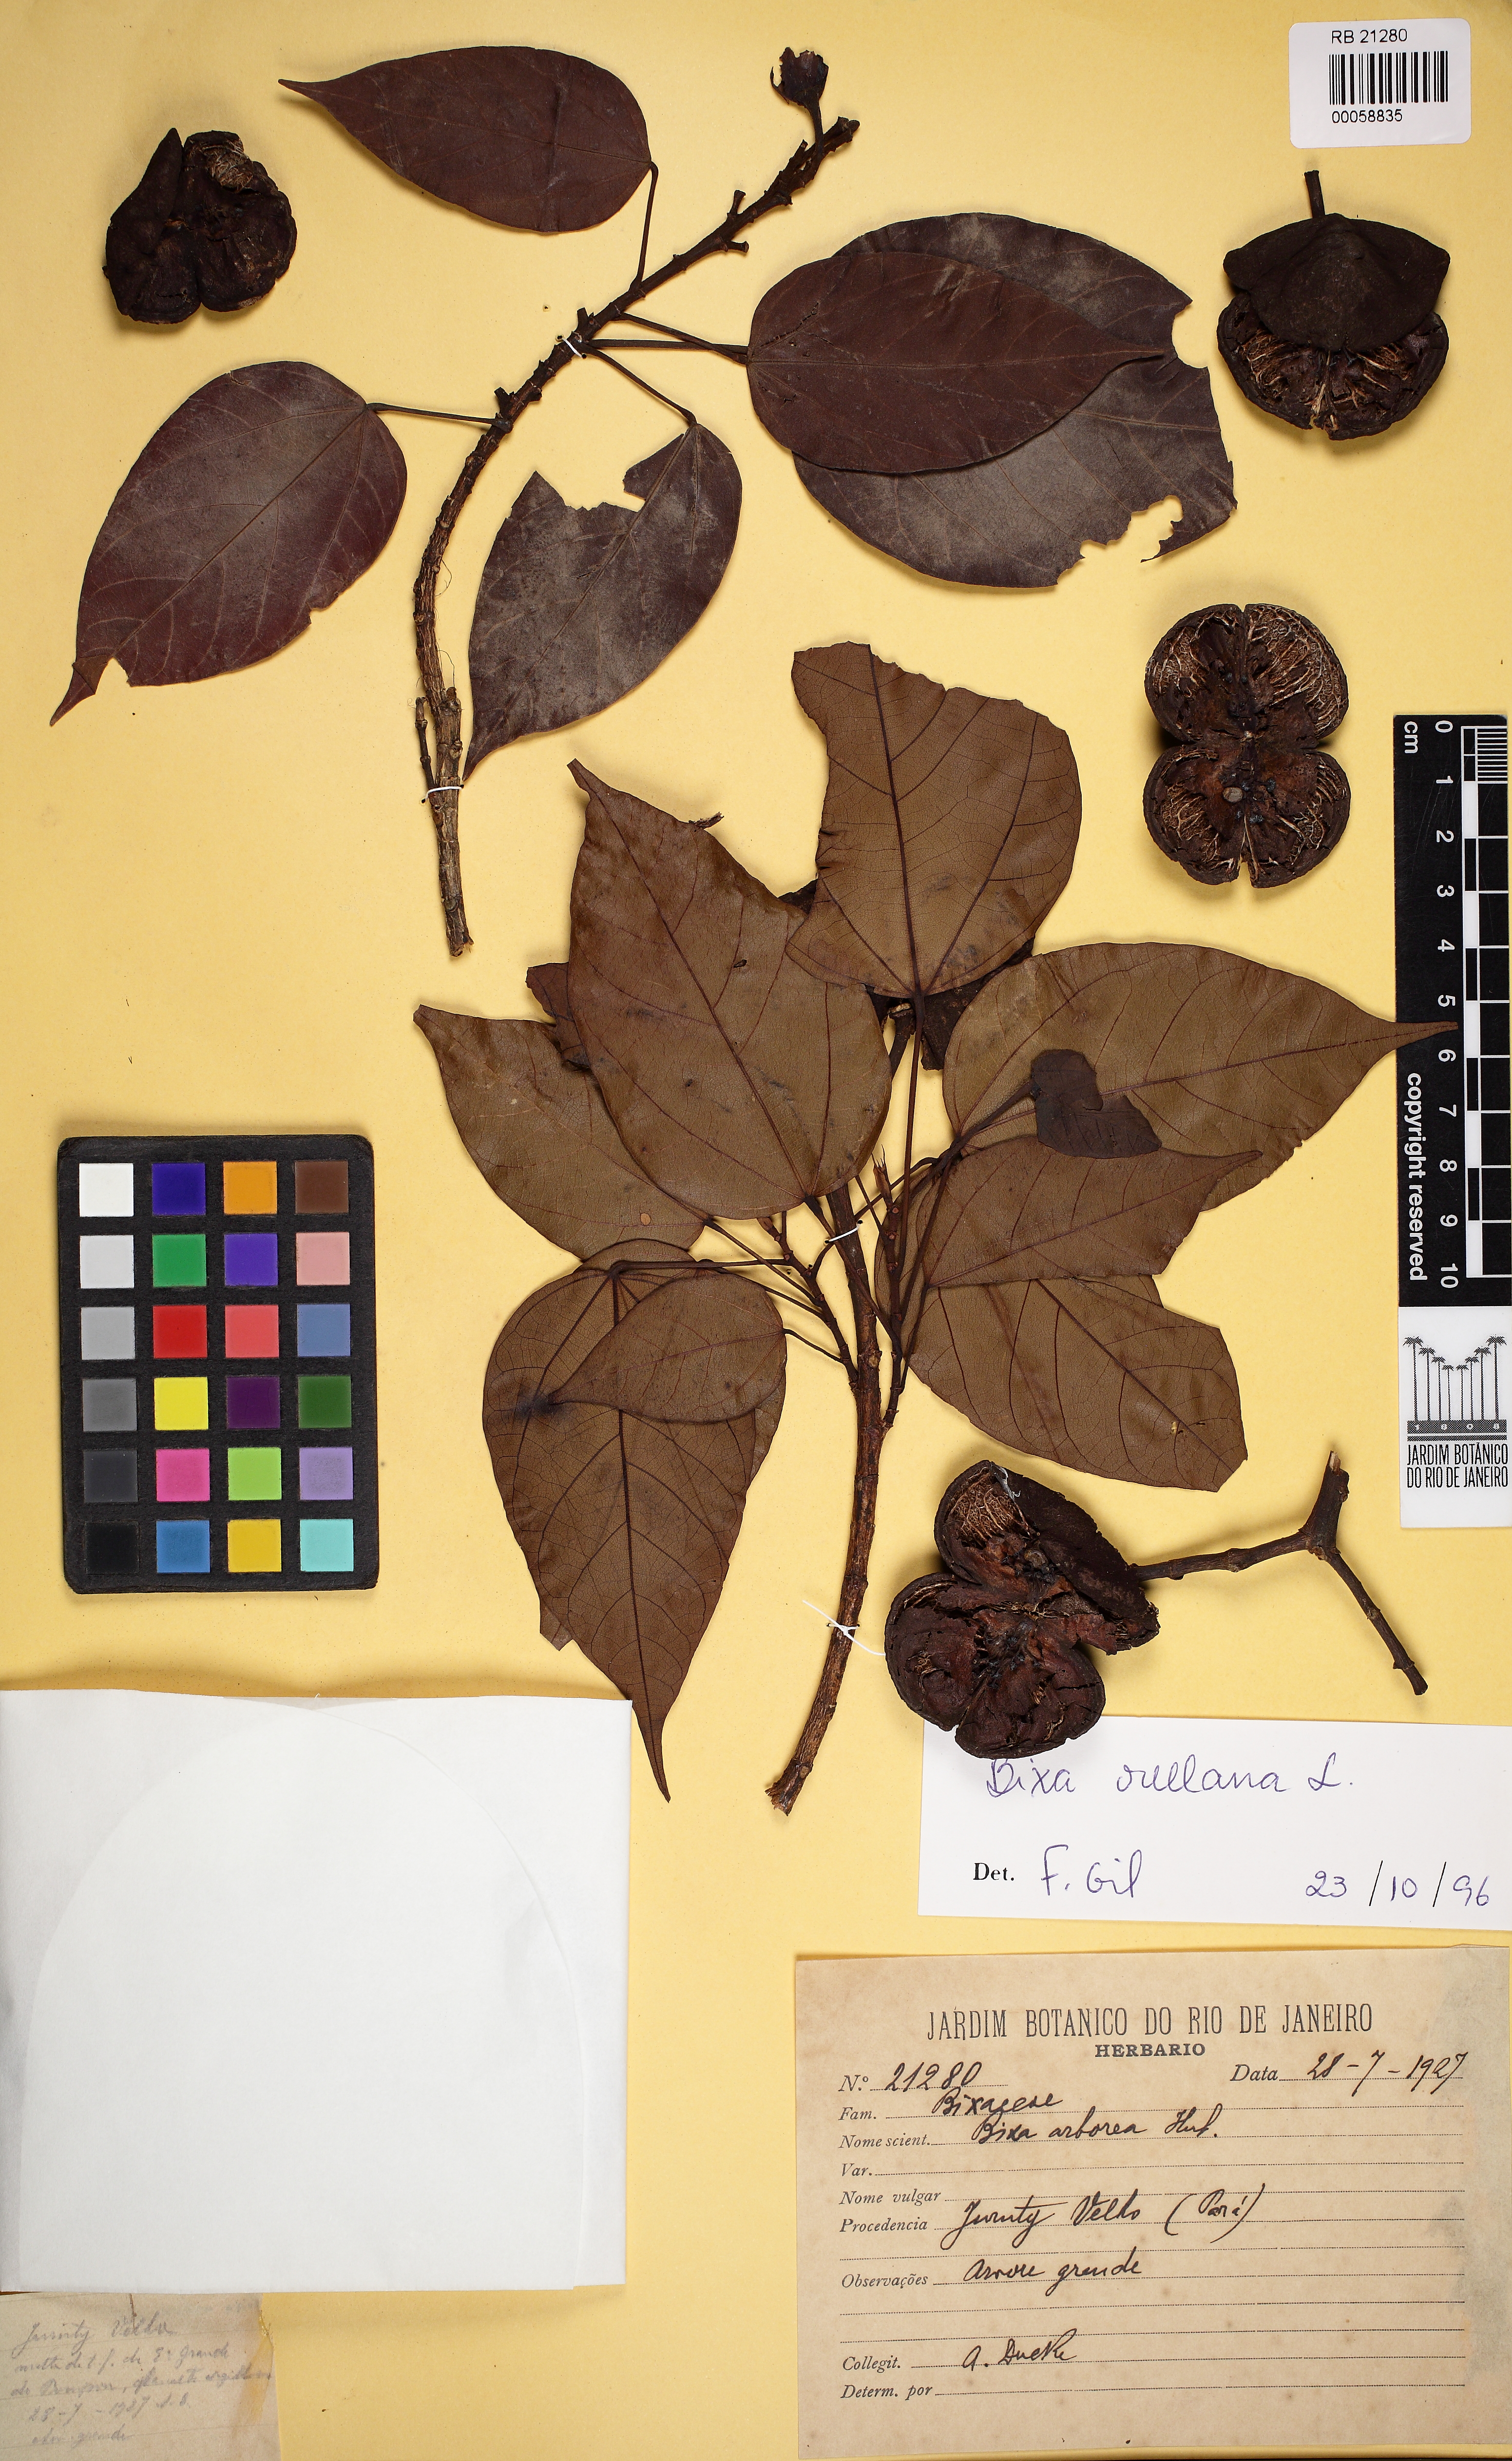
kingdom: Plantae
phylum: Tracheophyta
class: Magnoliopsida
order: Malvales
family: Bixaceae
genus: Bixa
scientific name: Bixa orellana
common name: Lipsticktree
